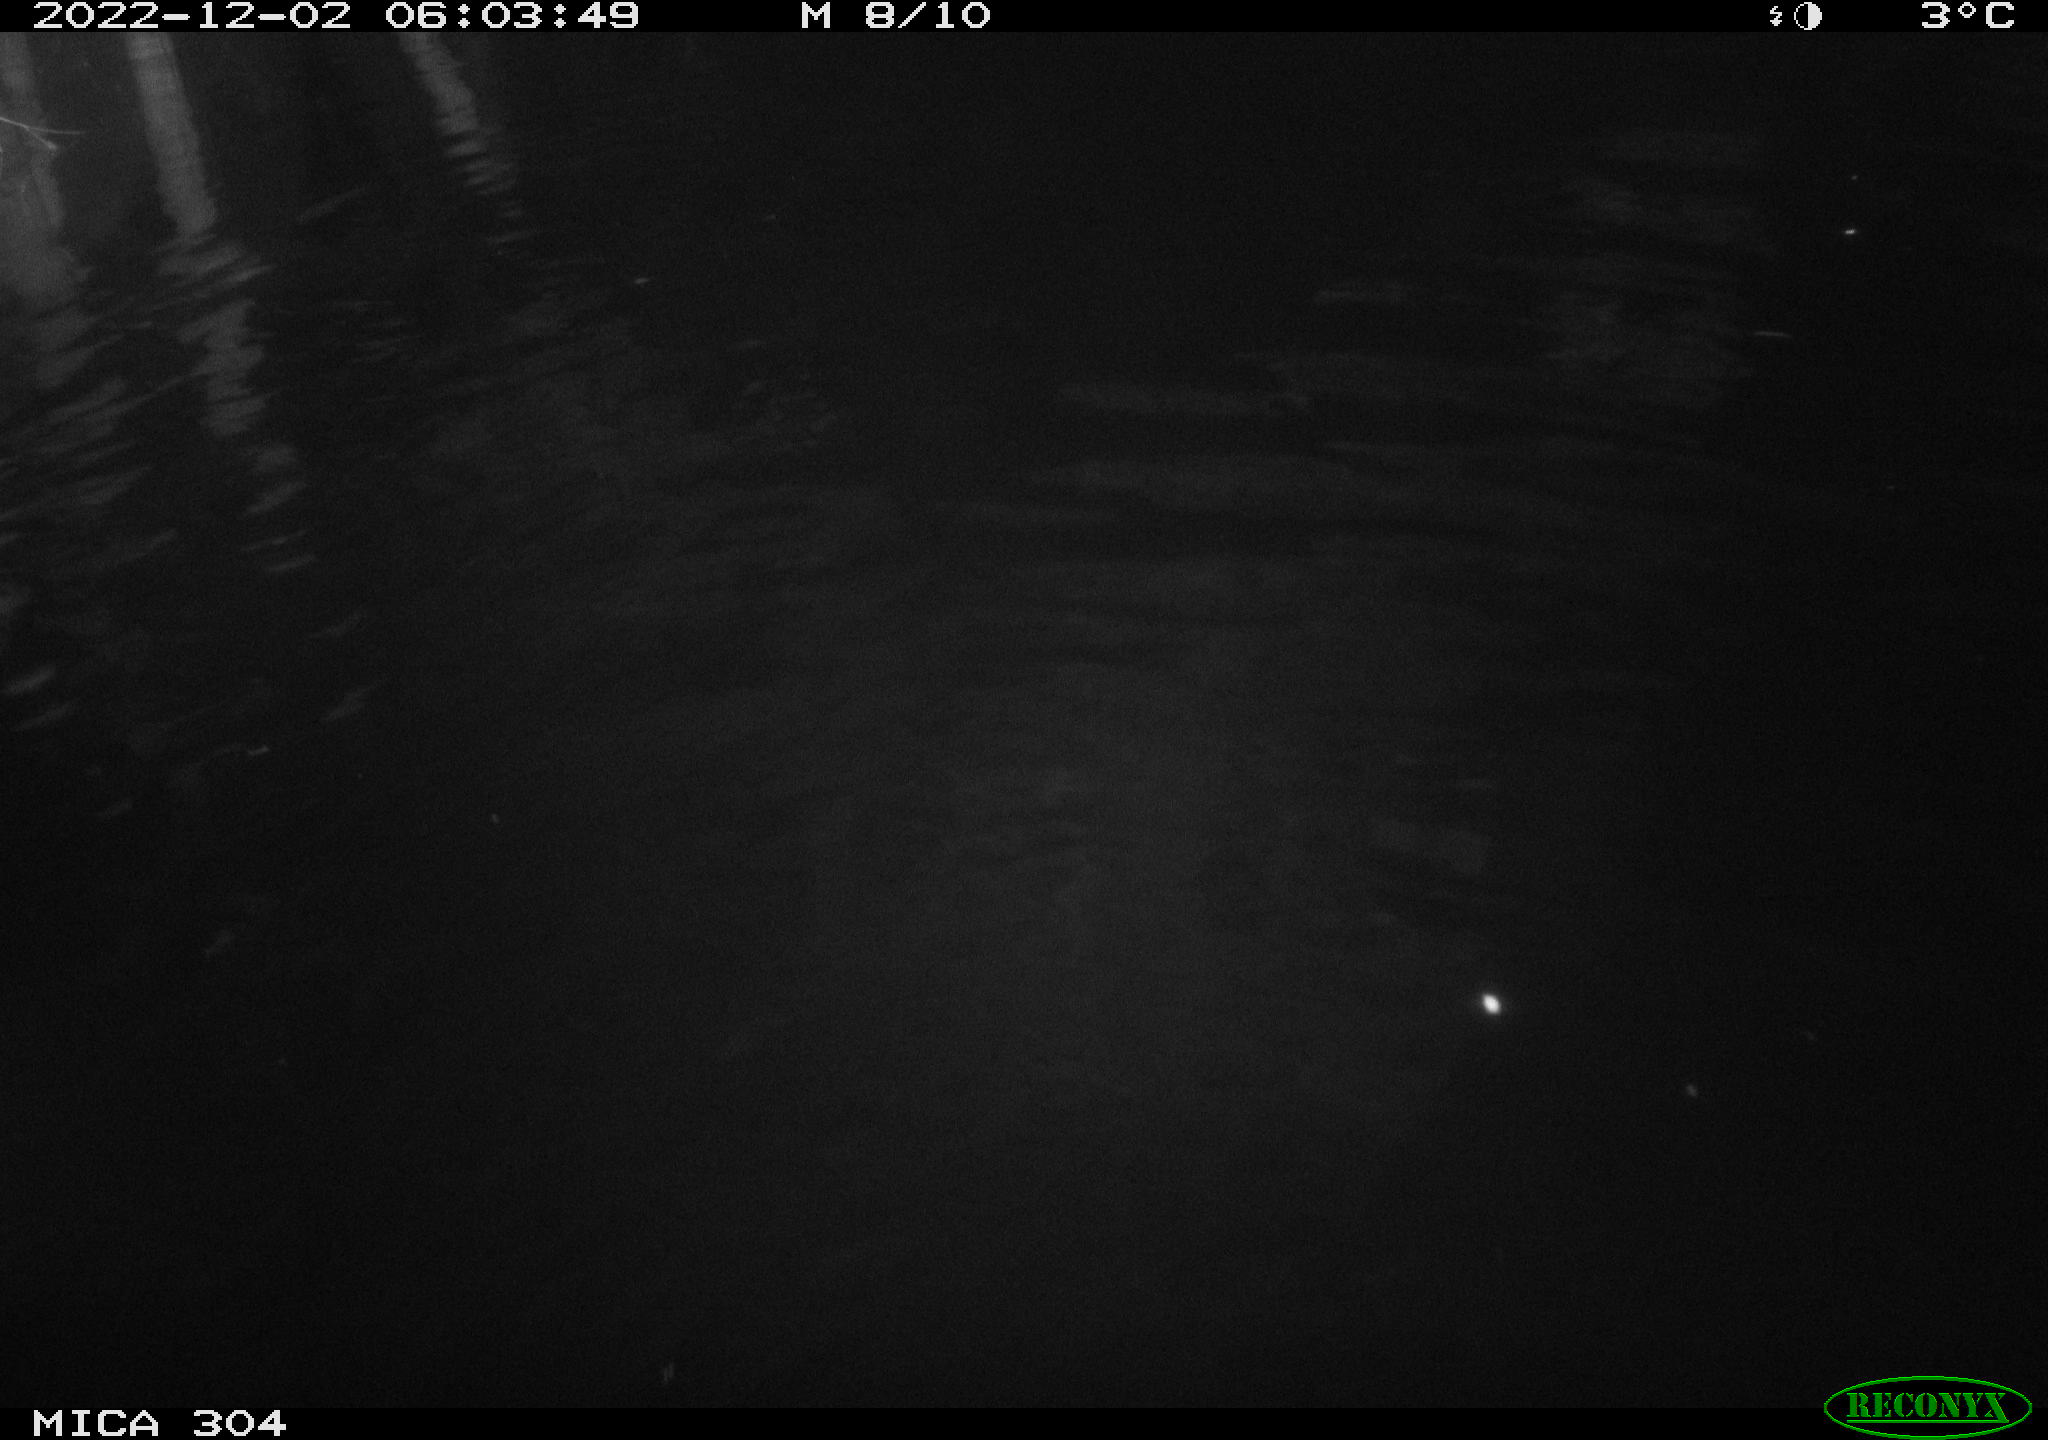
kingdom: Animalia
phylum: Chordata
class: Aves
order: Anseriformes
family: Anatidae
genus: Anas
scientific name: Anas
